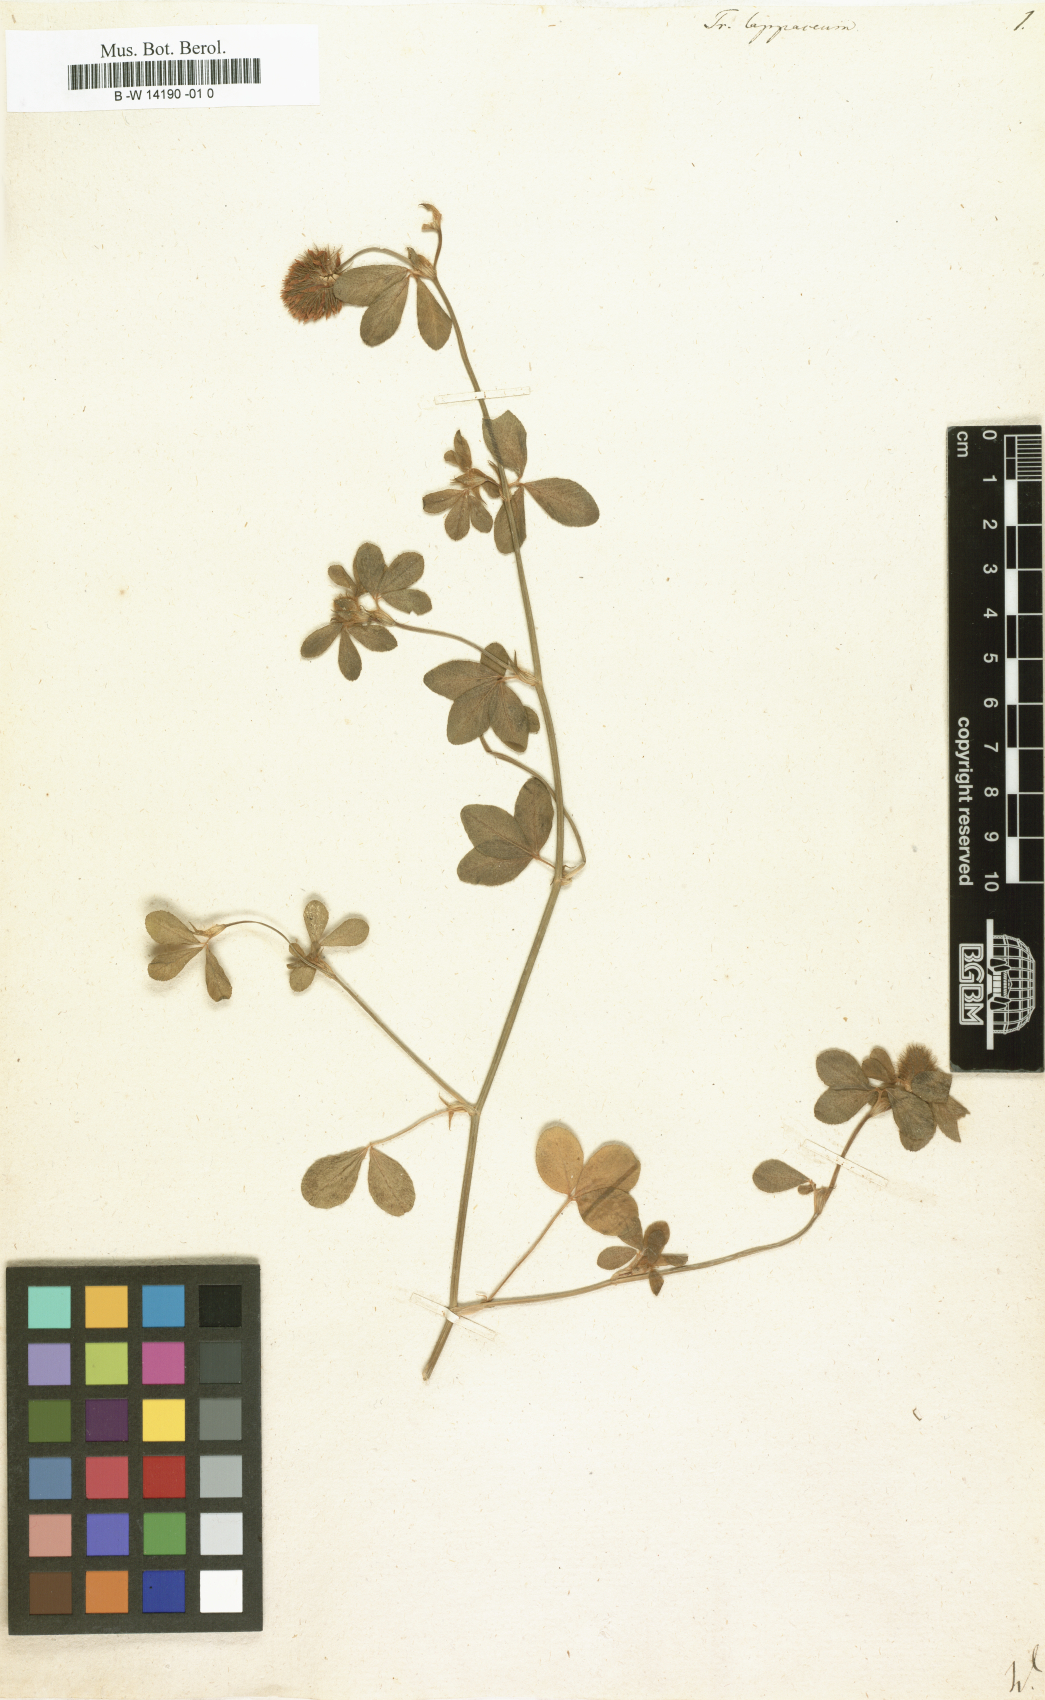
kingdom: Plantae
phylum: Tracheophyta
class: Magnoliopsida
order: Fabales
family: Fabaceae
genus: Trifolium
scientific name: Trifolium lappaceum
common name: Bur clover
